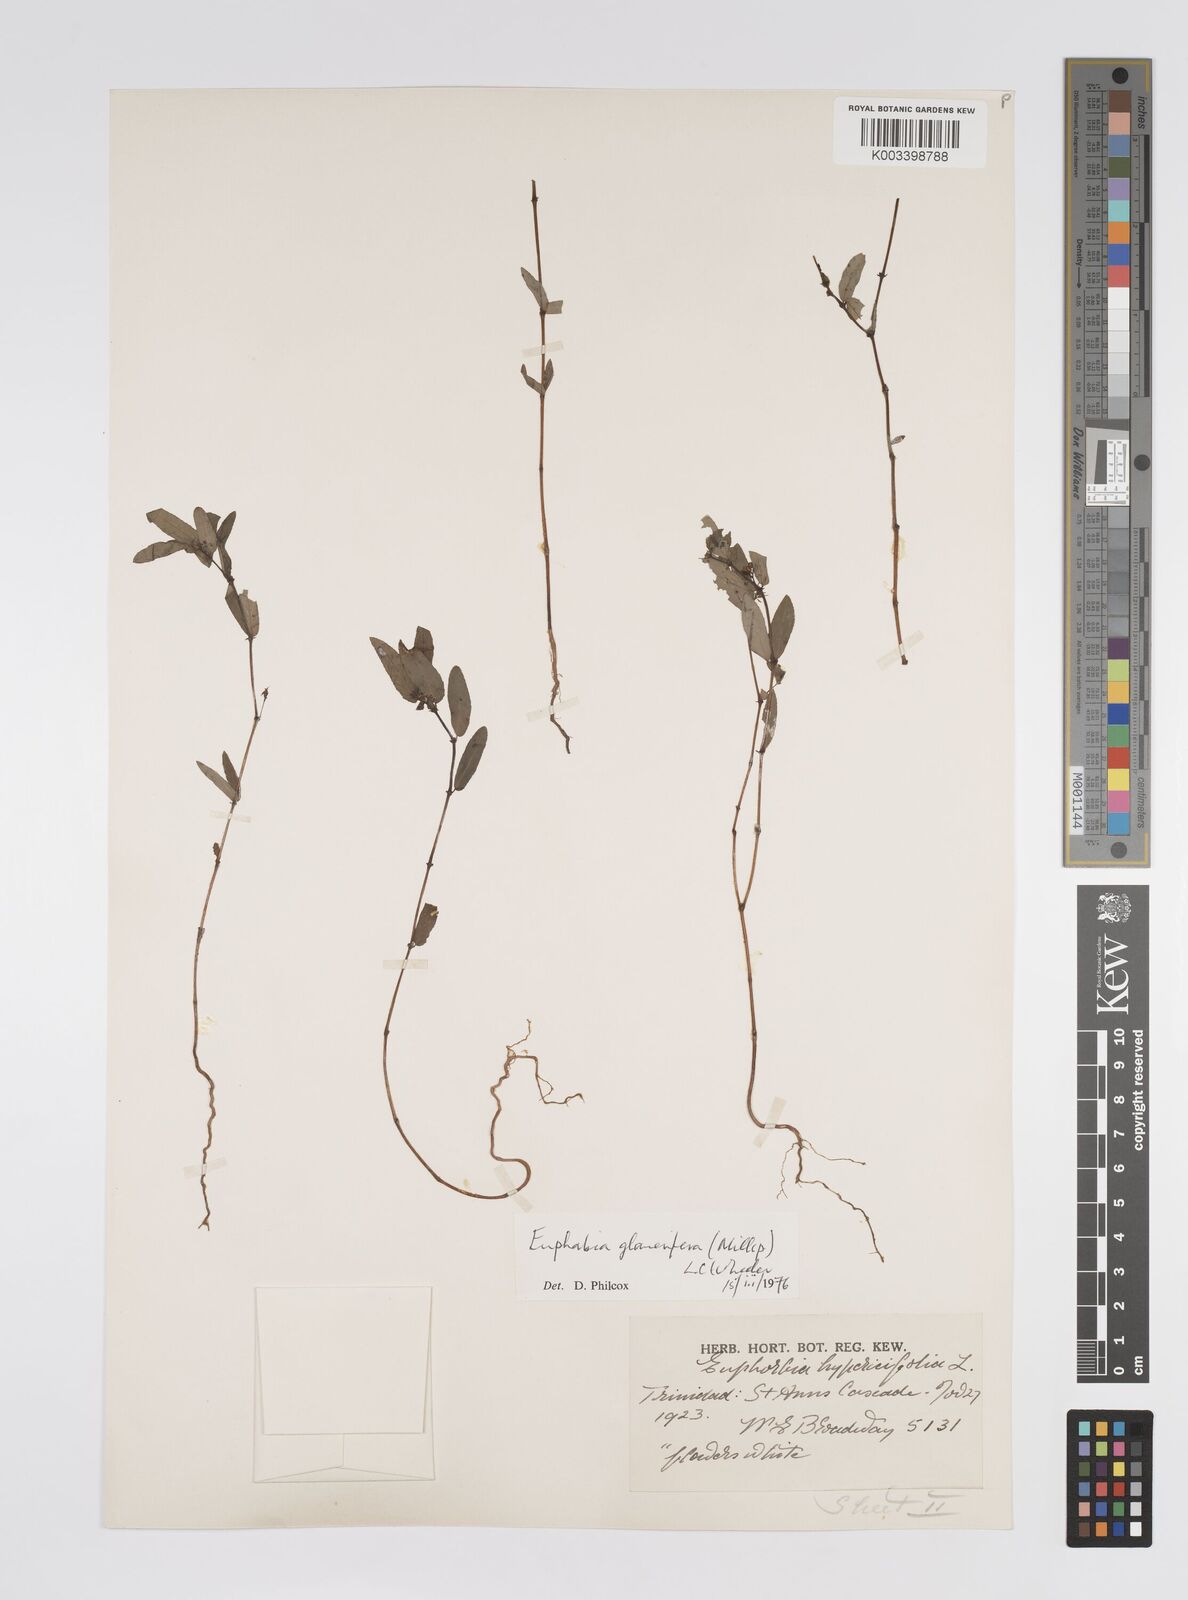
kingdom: Plantae
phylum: Tracheophyta
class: Magnoliopsida
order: Malpighiales
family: Euphorbiaceae
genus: Euphorbia
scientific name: Euphorbia hypericifolia
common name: Graceful sandmat
